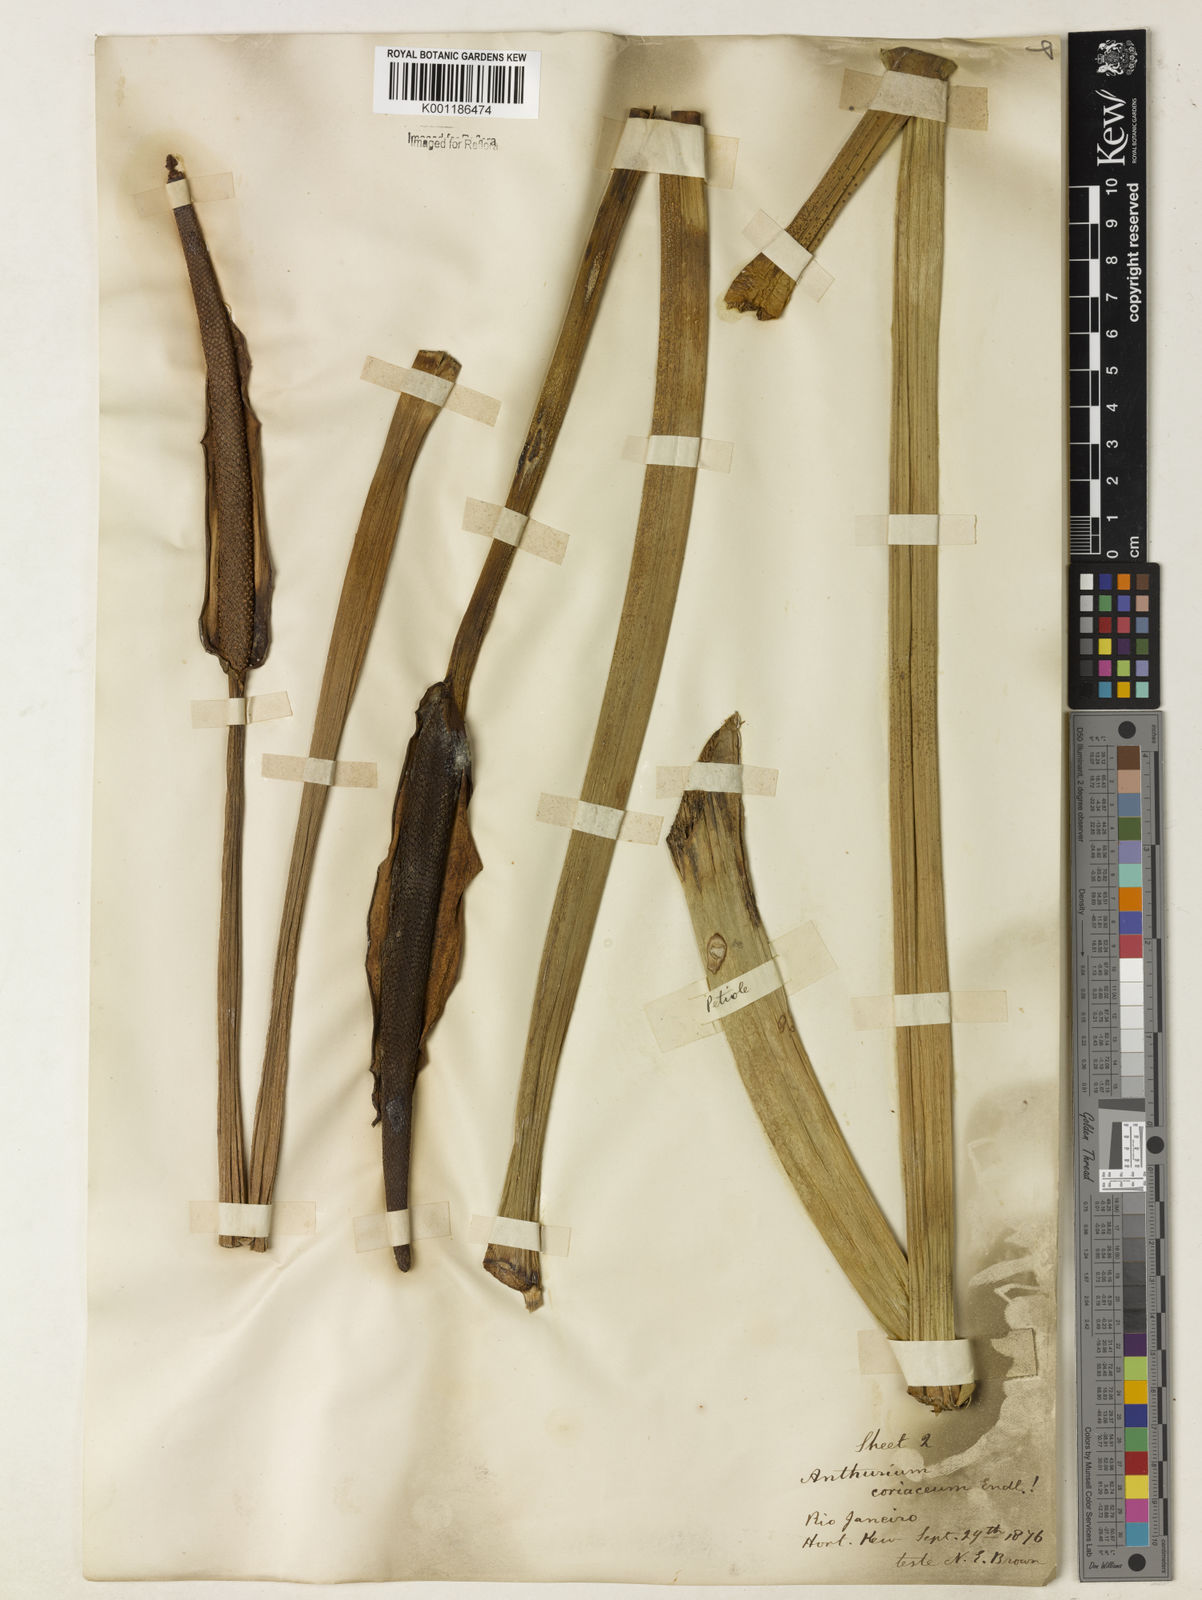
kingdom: Plantae
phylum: Tracheophyta
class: Liliopsida
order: Alismatales
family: Araceae
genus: Anthurium
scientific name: Anthurium coriaceum
